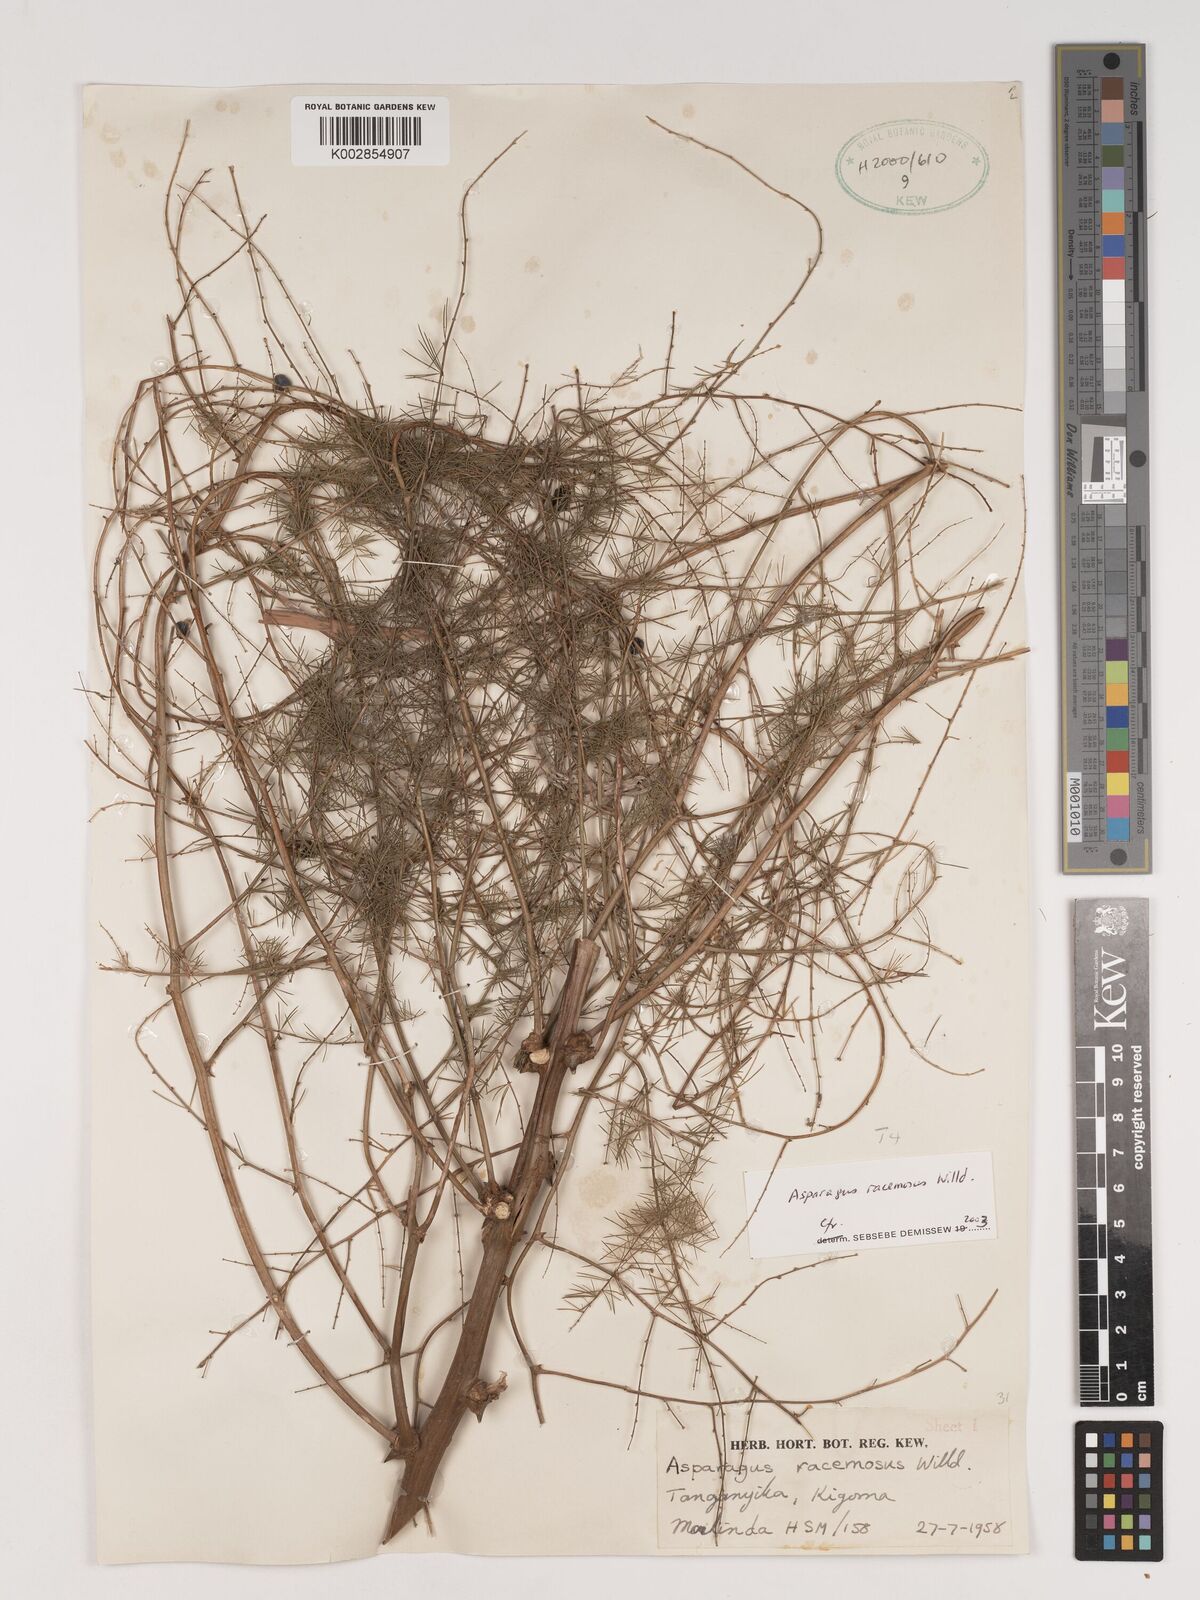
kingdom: Plantae
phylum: Tracheophyta
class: Liliopsida
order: Asparagales
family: Asparagaceae
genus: Asparagus
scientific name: Asparagus racemosus
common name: Asparagus-fern
